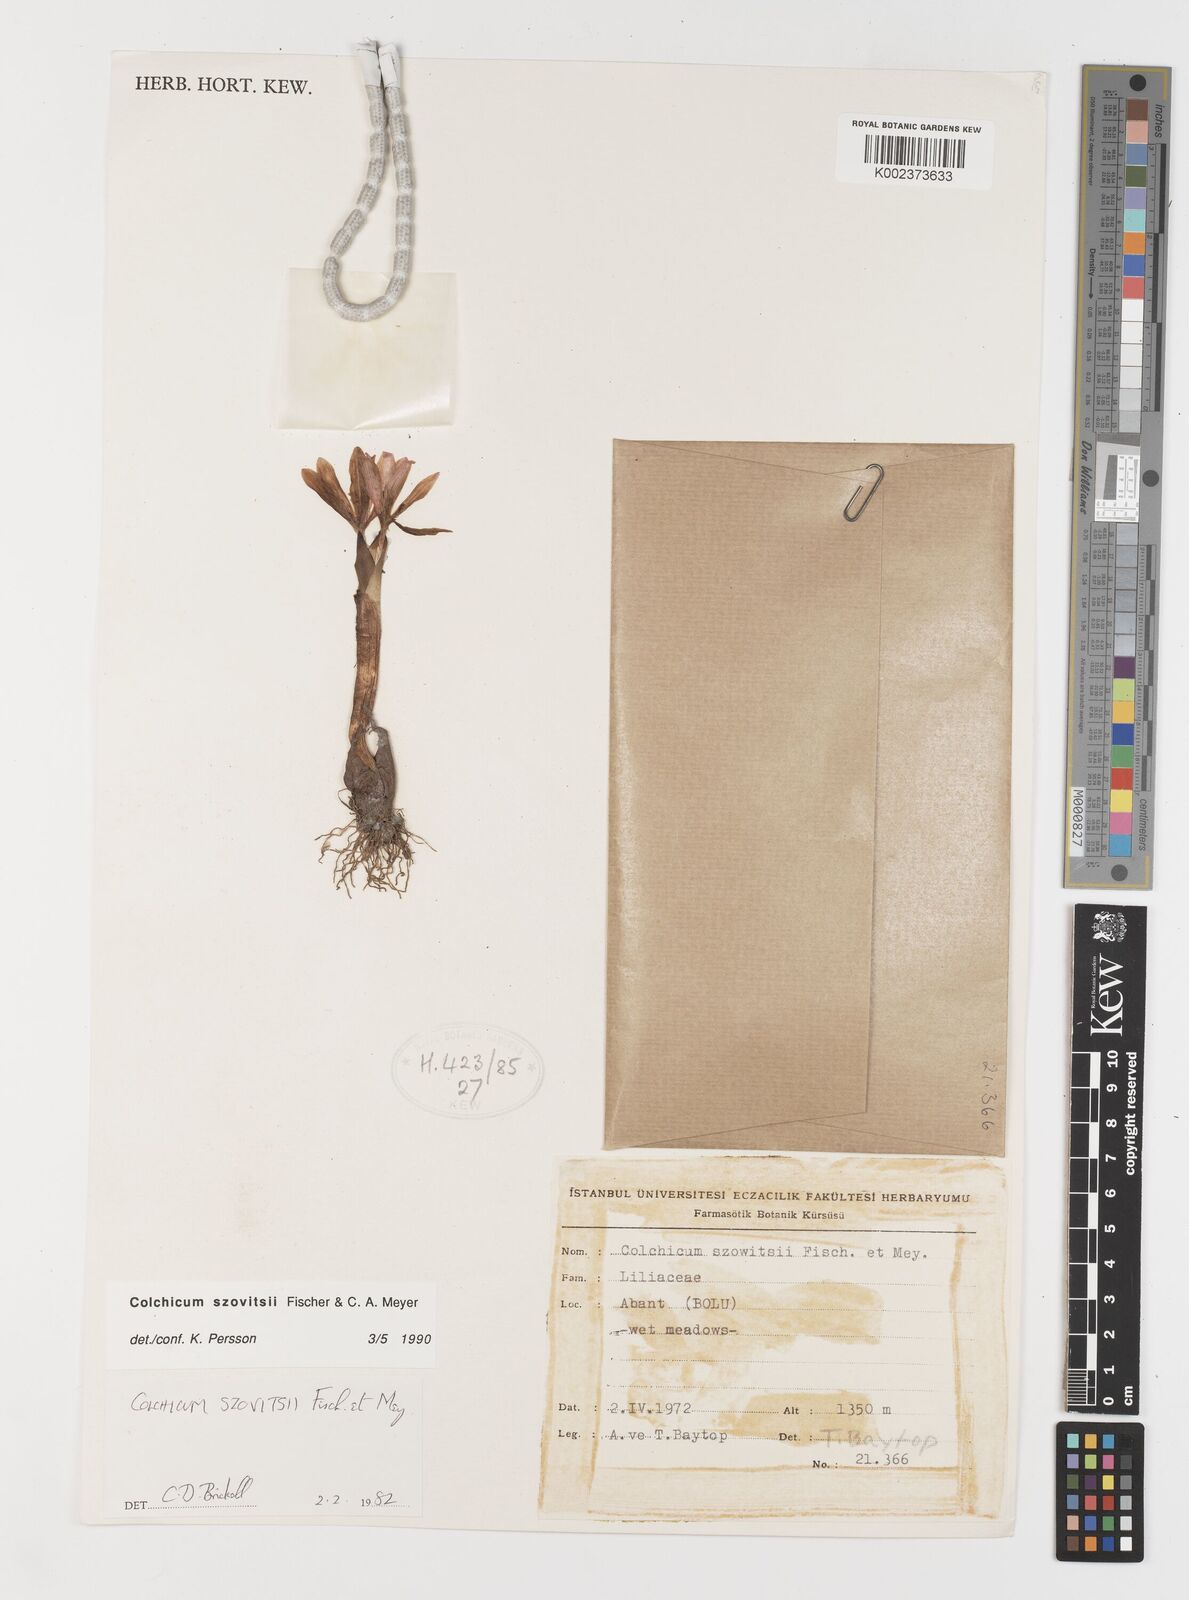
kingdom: Plantae
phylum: Tracheophyta
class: Liliopsida
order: Liliales
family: Colchicaceae
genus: Colchicum
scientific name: Colchicum szovitsii
